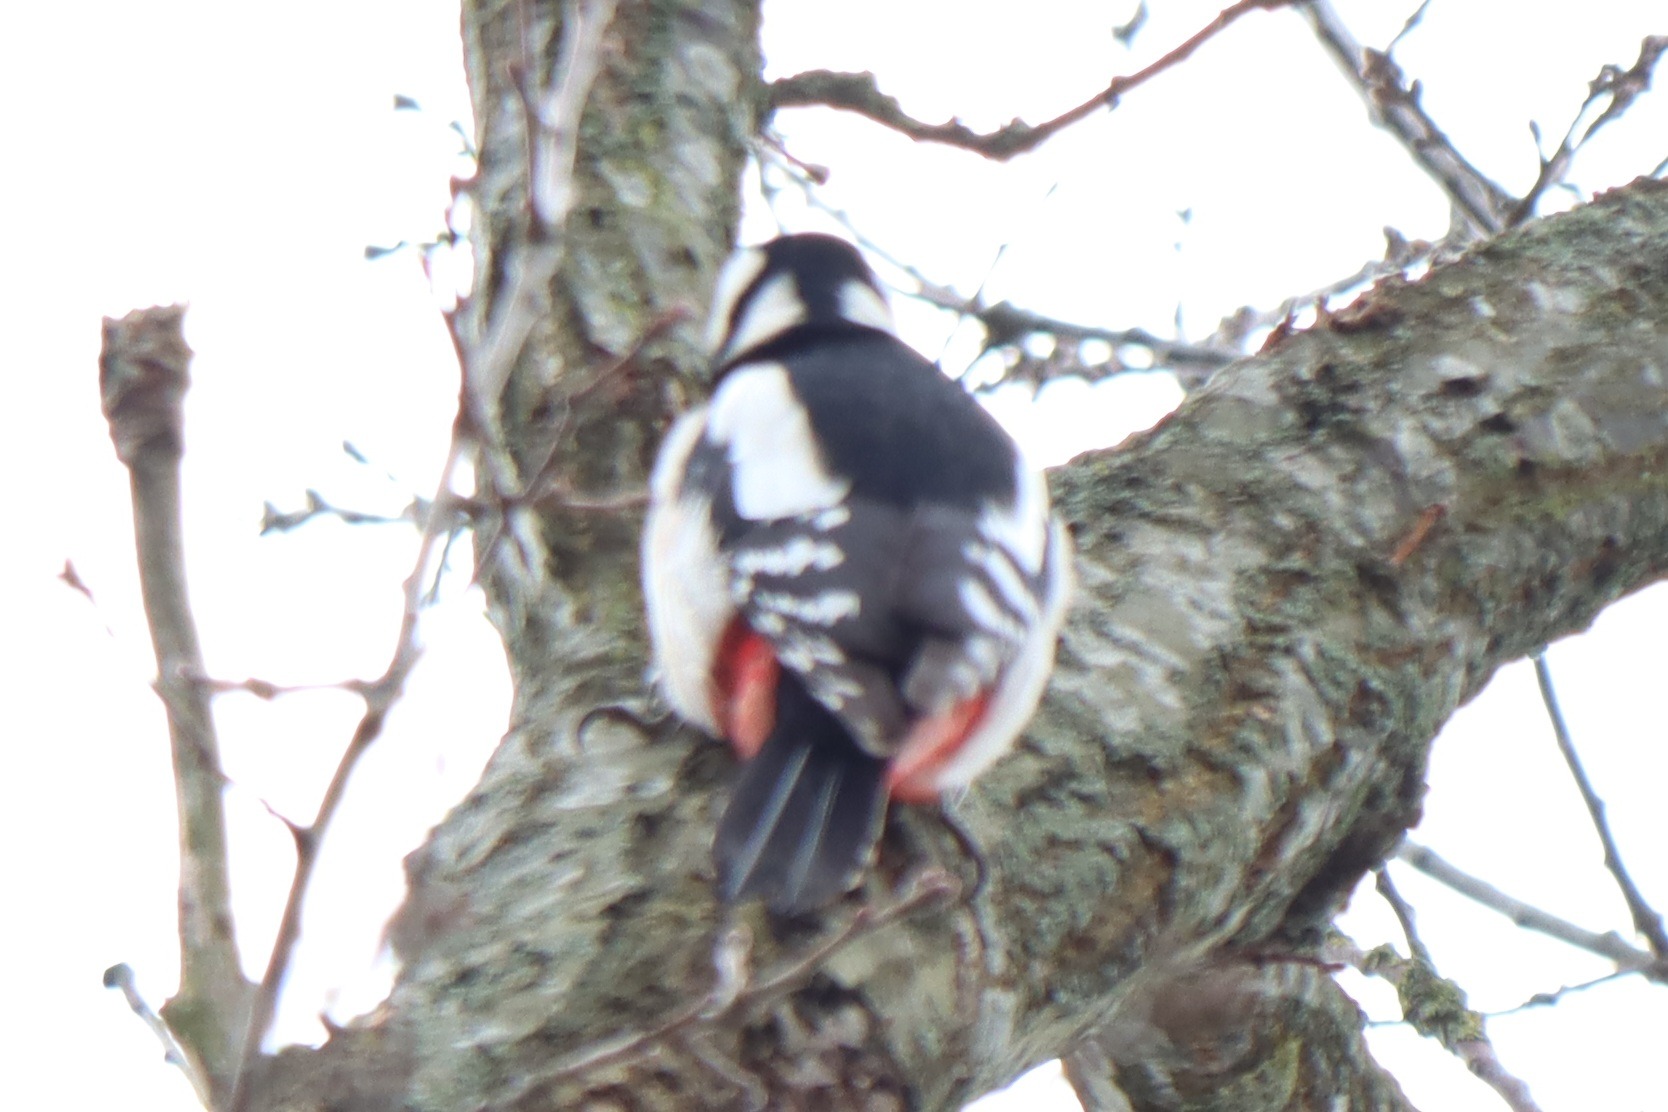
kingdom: Animalia
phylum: Chordata
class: Aves
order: Piciformes
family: Picidae
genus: Dendrocopos
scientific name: Dendrocopos major
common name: Stor flagspætte
